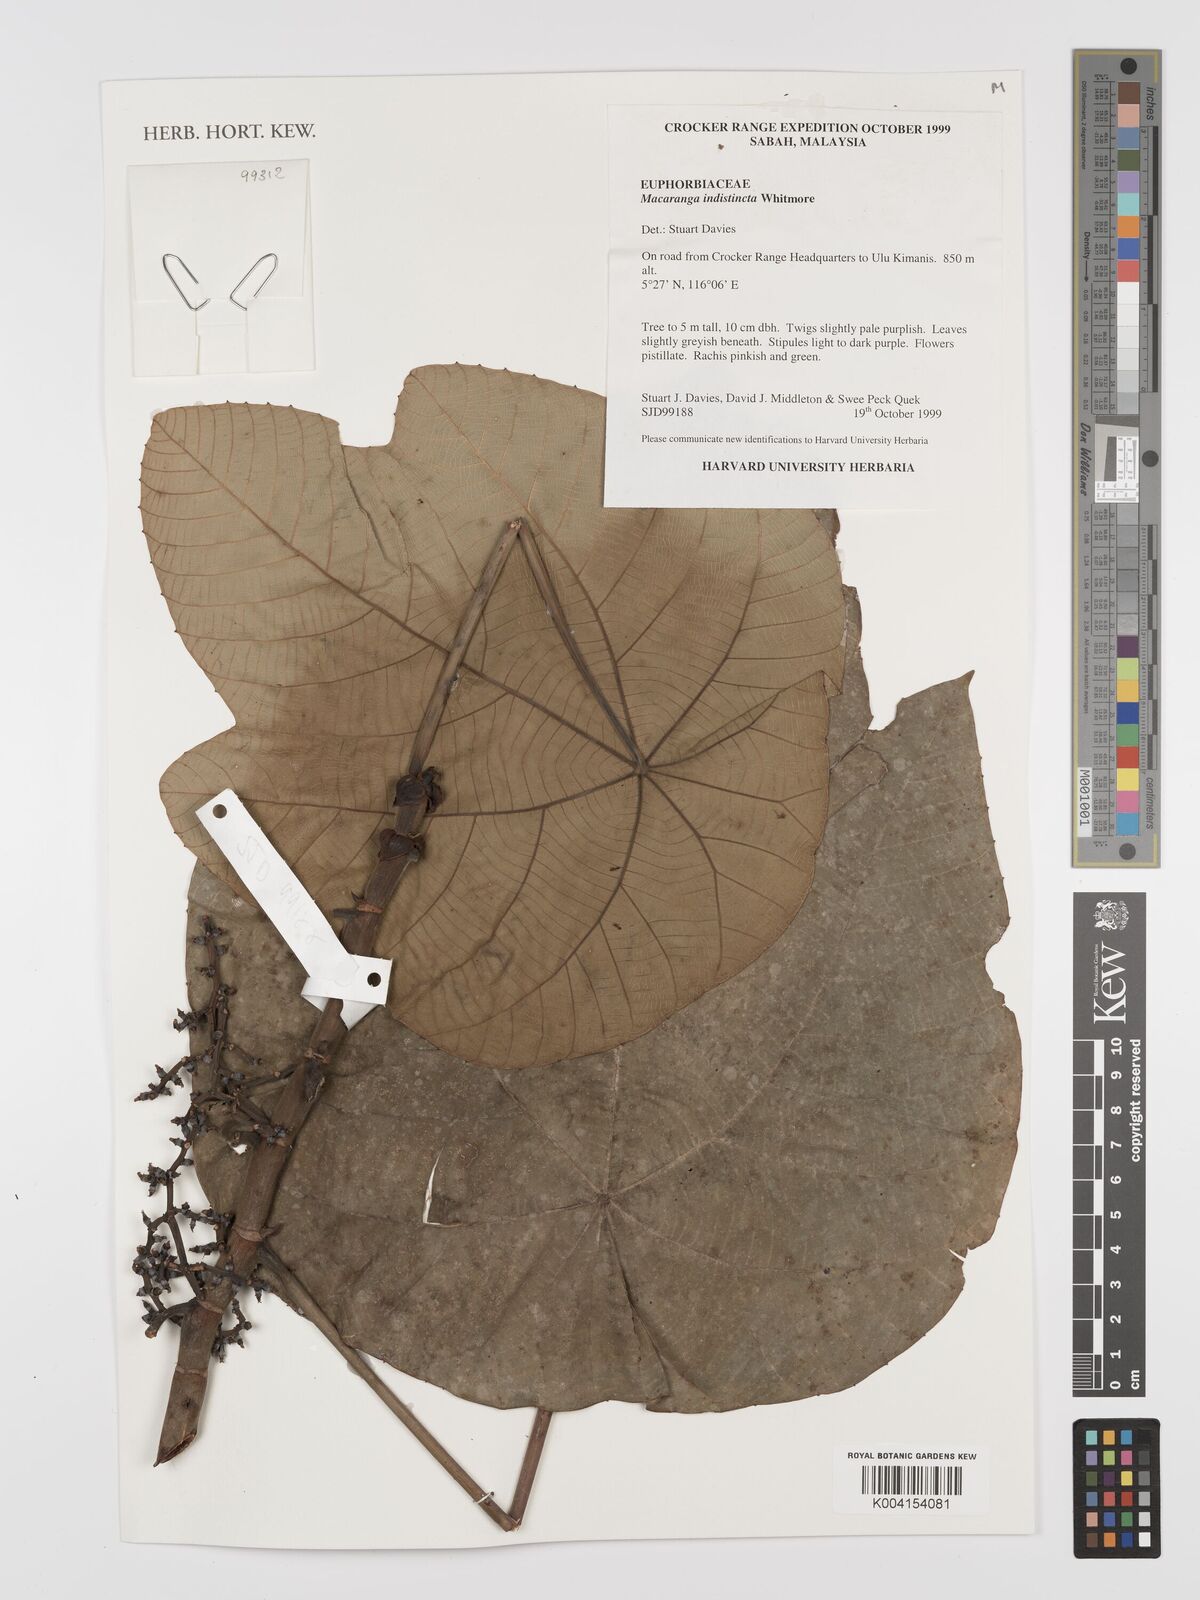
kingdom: Plantae
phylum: Tracheophyta
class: Magnoliopsida
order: Malpighiales
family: Euphorbiaceae
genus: Macaranga
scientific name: Macaranga indistincta
